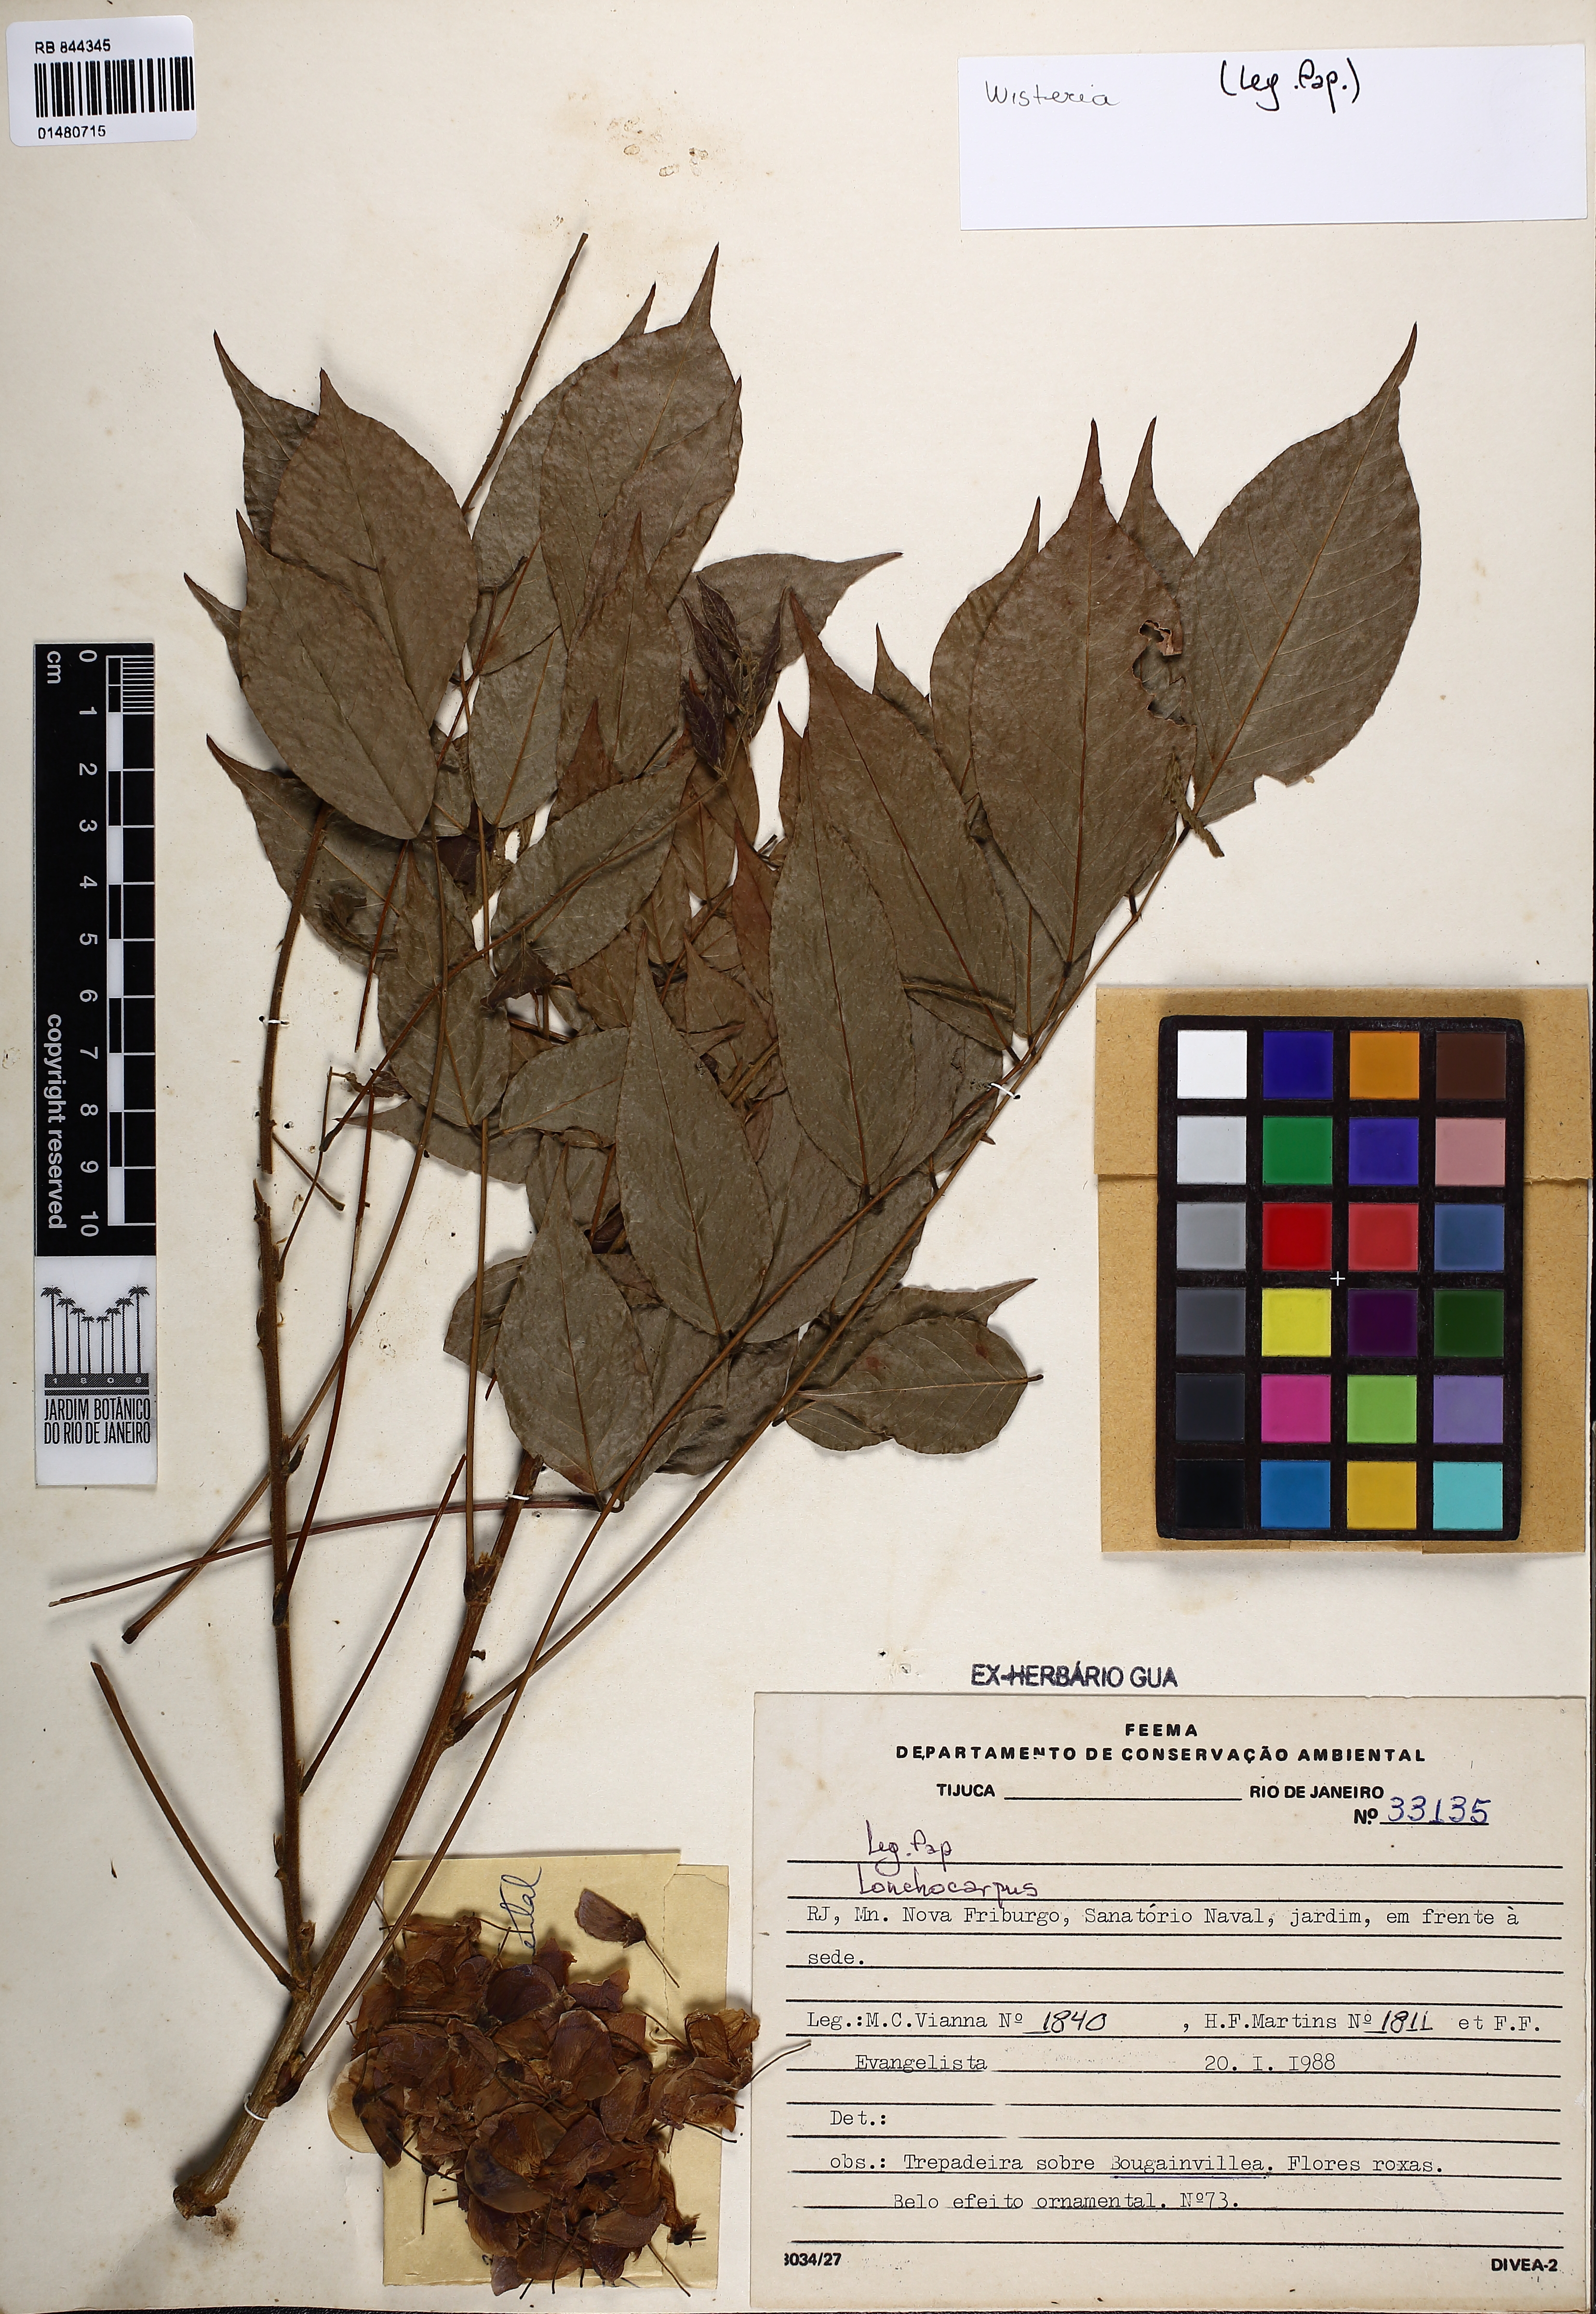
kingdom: Plantae
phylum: Tracheophyta
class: Magnoliopsida
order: Fabales
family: Fabaceae
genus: Wisteria
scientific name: Wisteria
